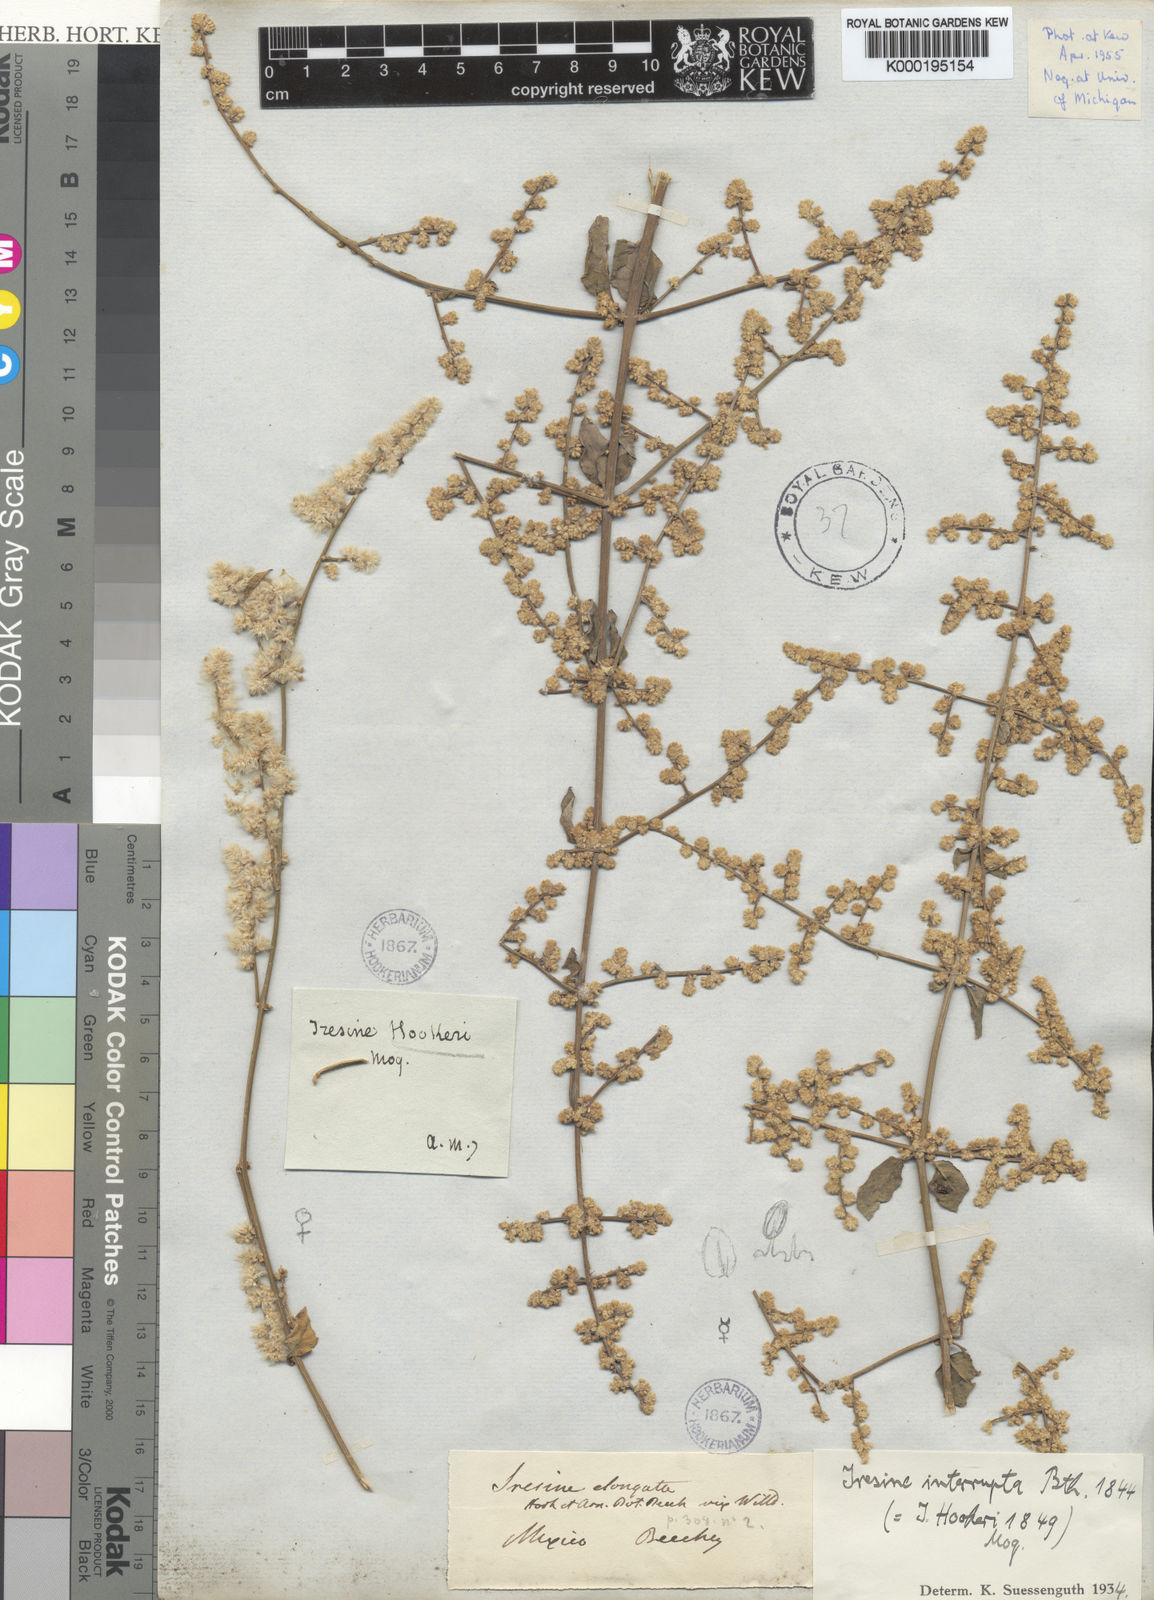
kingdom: Plantae
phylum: Tracheophyta
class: Magnoliopsida
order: Caryophyllales
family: Amaranthaceae
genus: Iresine
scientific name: Iresine interrupta
